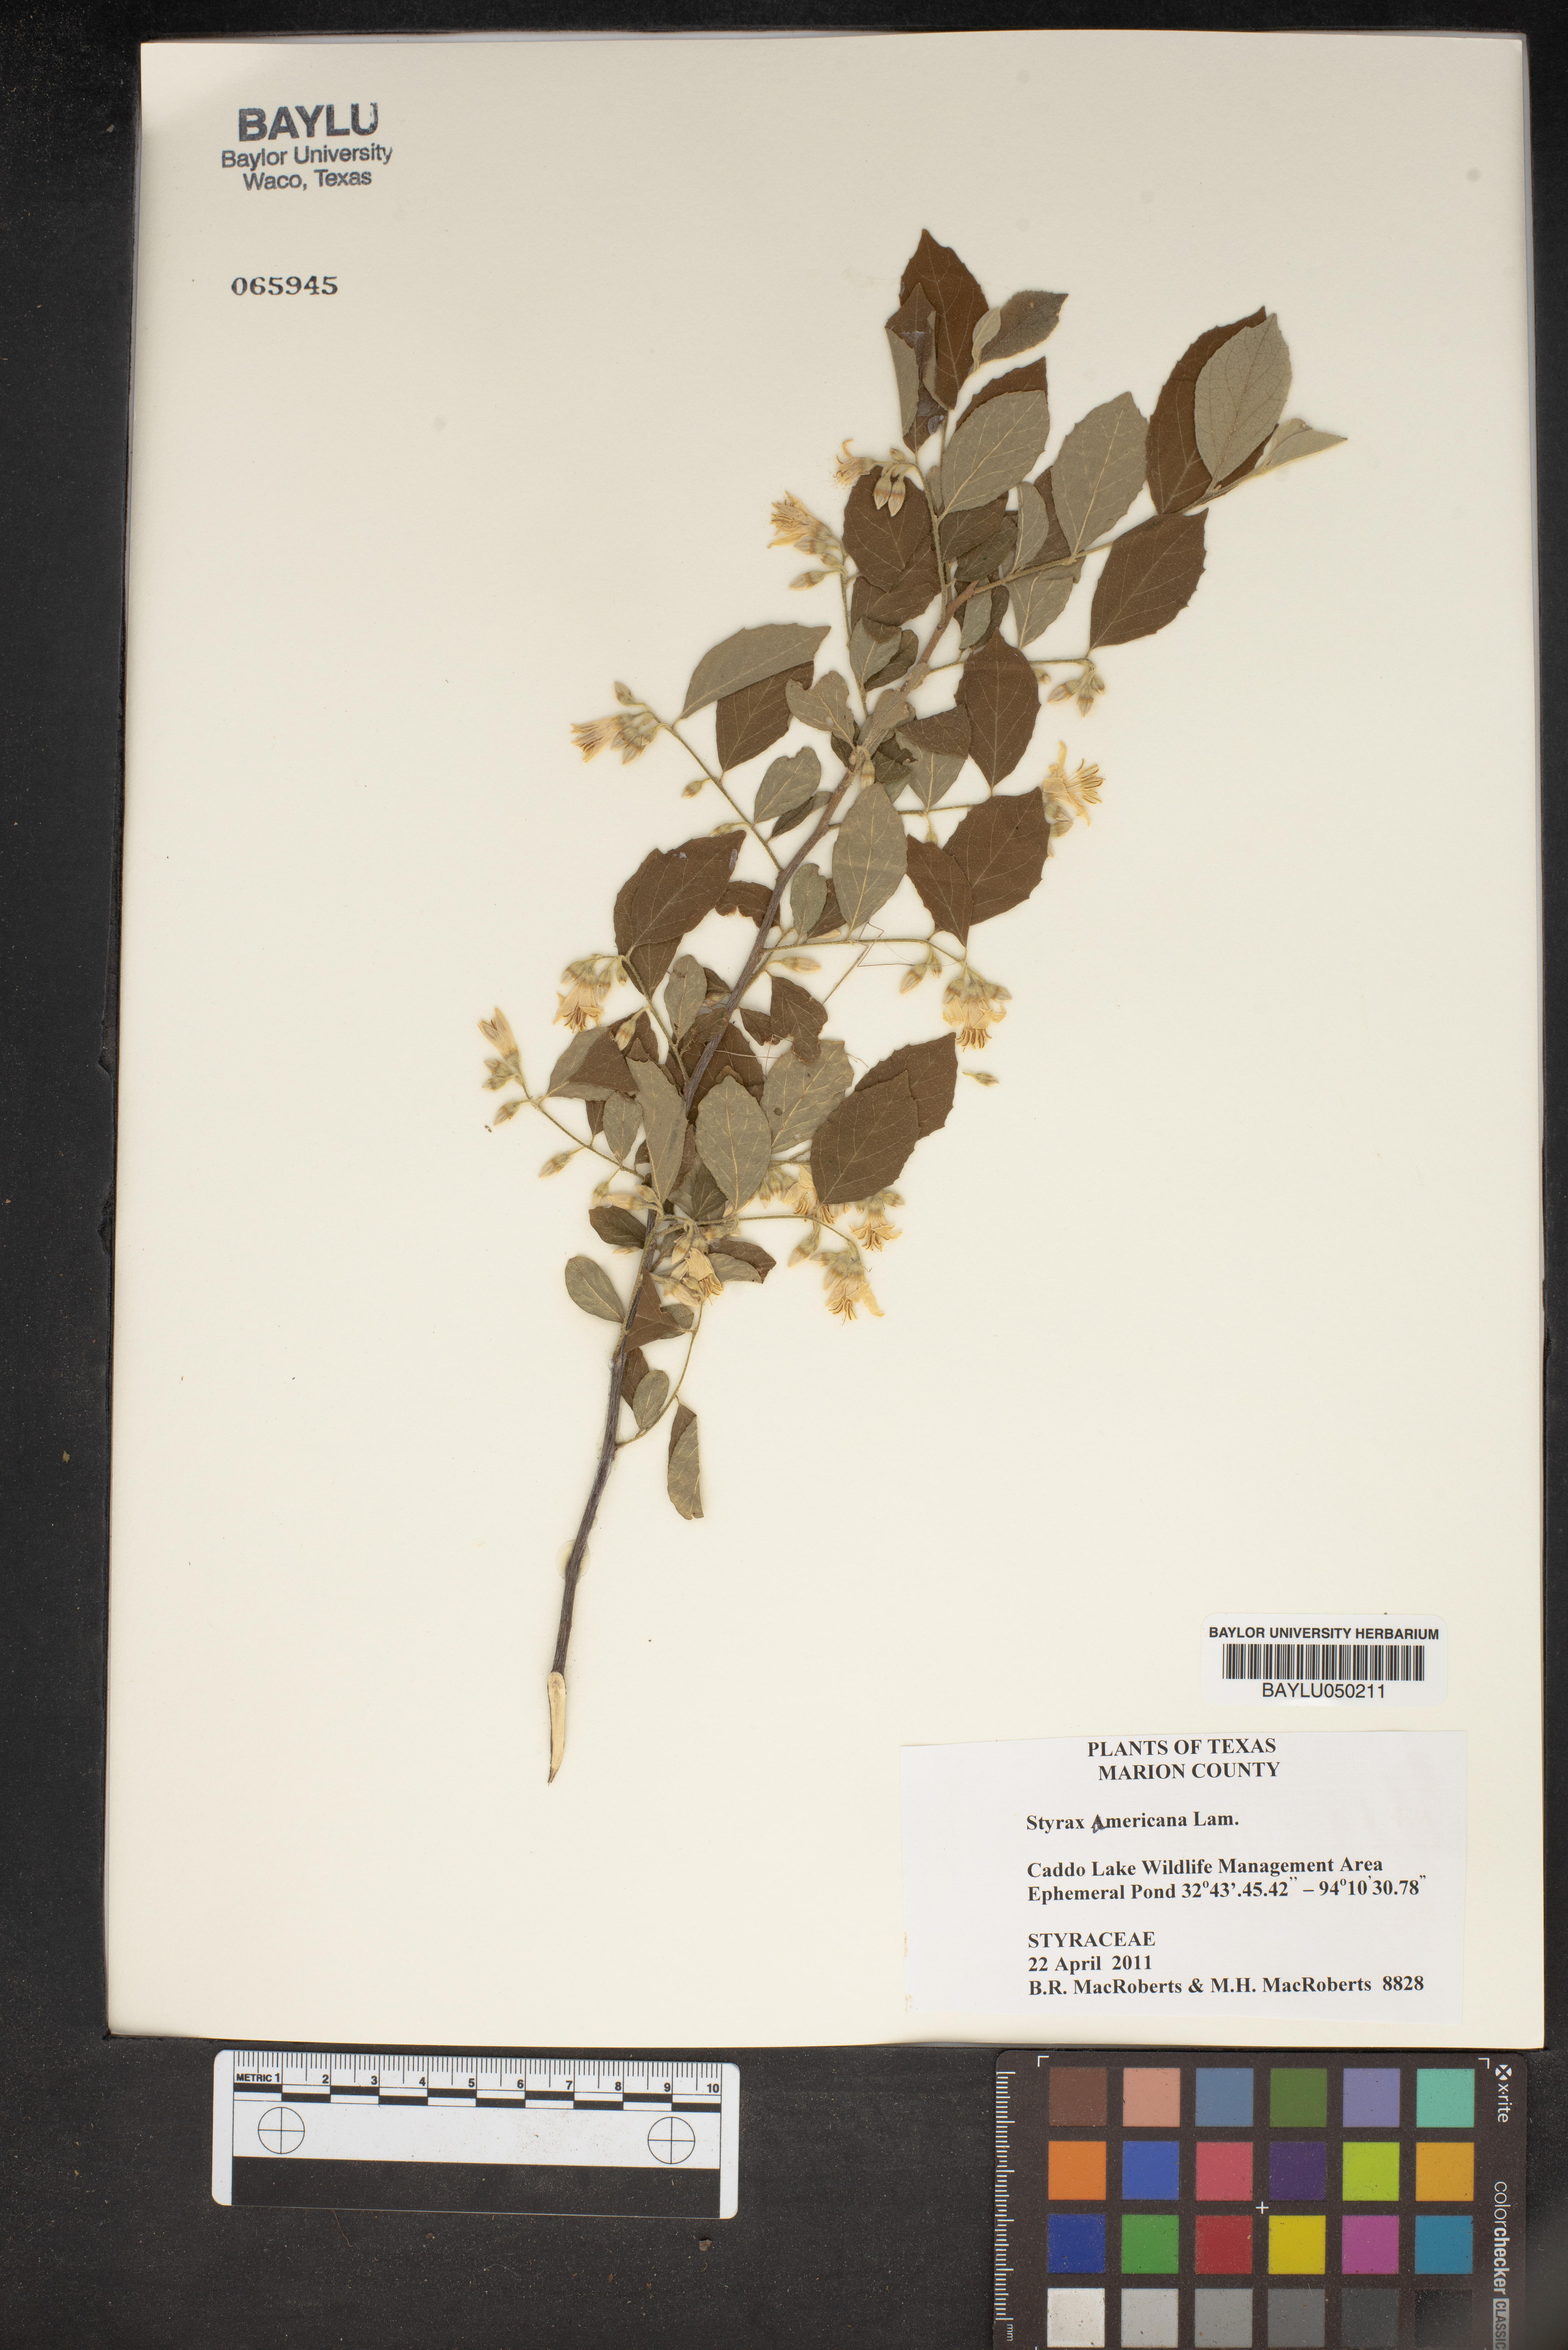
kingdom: Plantae
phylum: Tracheophyta
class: Magnoliopsida
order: Ericales
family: Styracaceae
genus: Styrax
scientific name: Styrax americanus
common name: American snowbell
